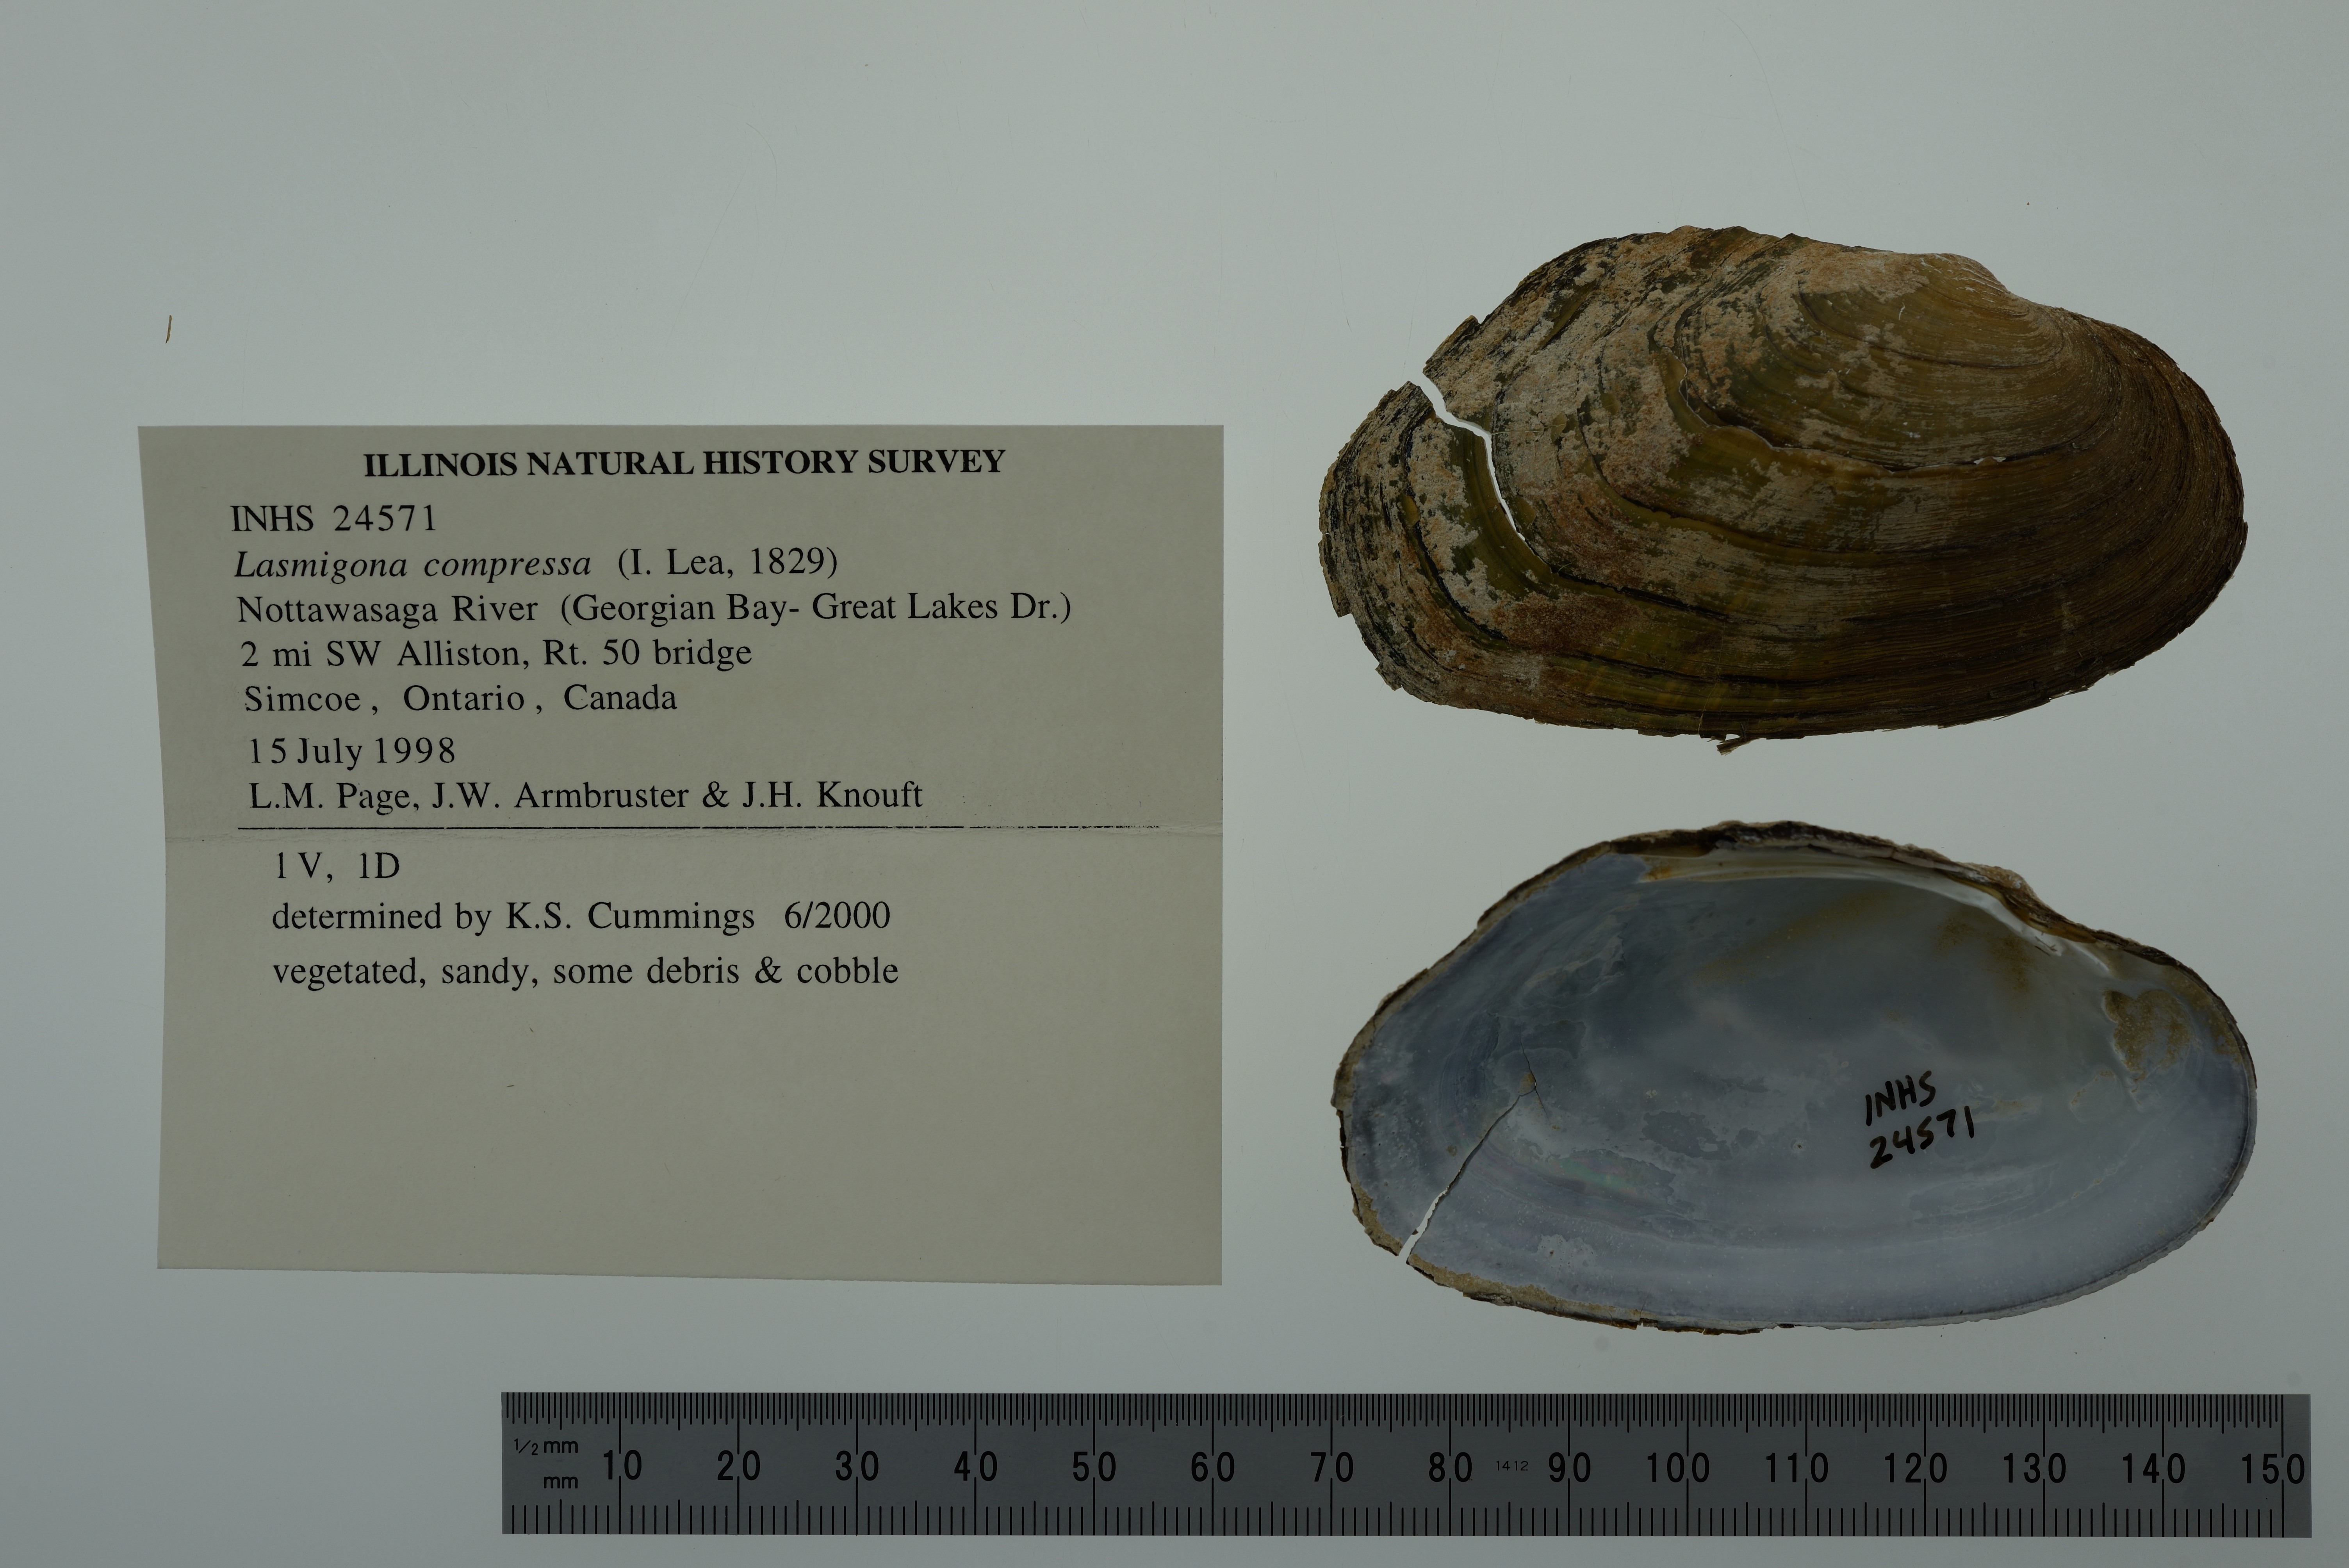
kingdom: Animalia
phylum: Mollusca
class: Bivalvia
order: Unionida
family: Unionidae
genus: Lasmigona
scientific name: Lasmigona compressa
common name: Creek heelsplitter
